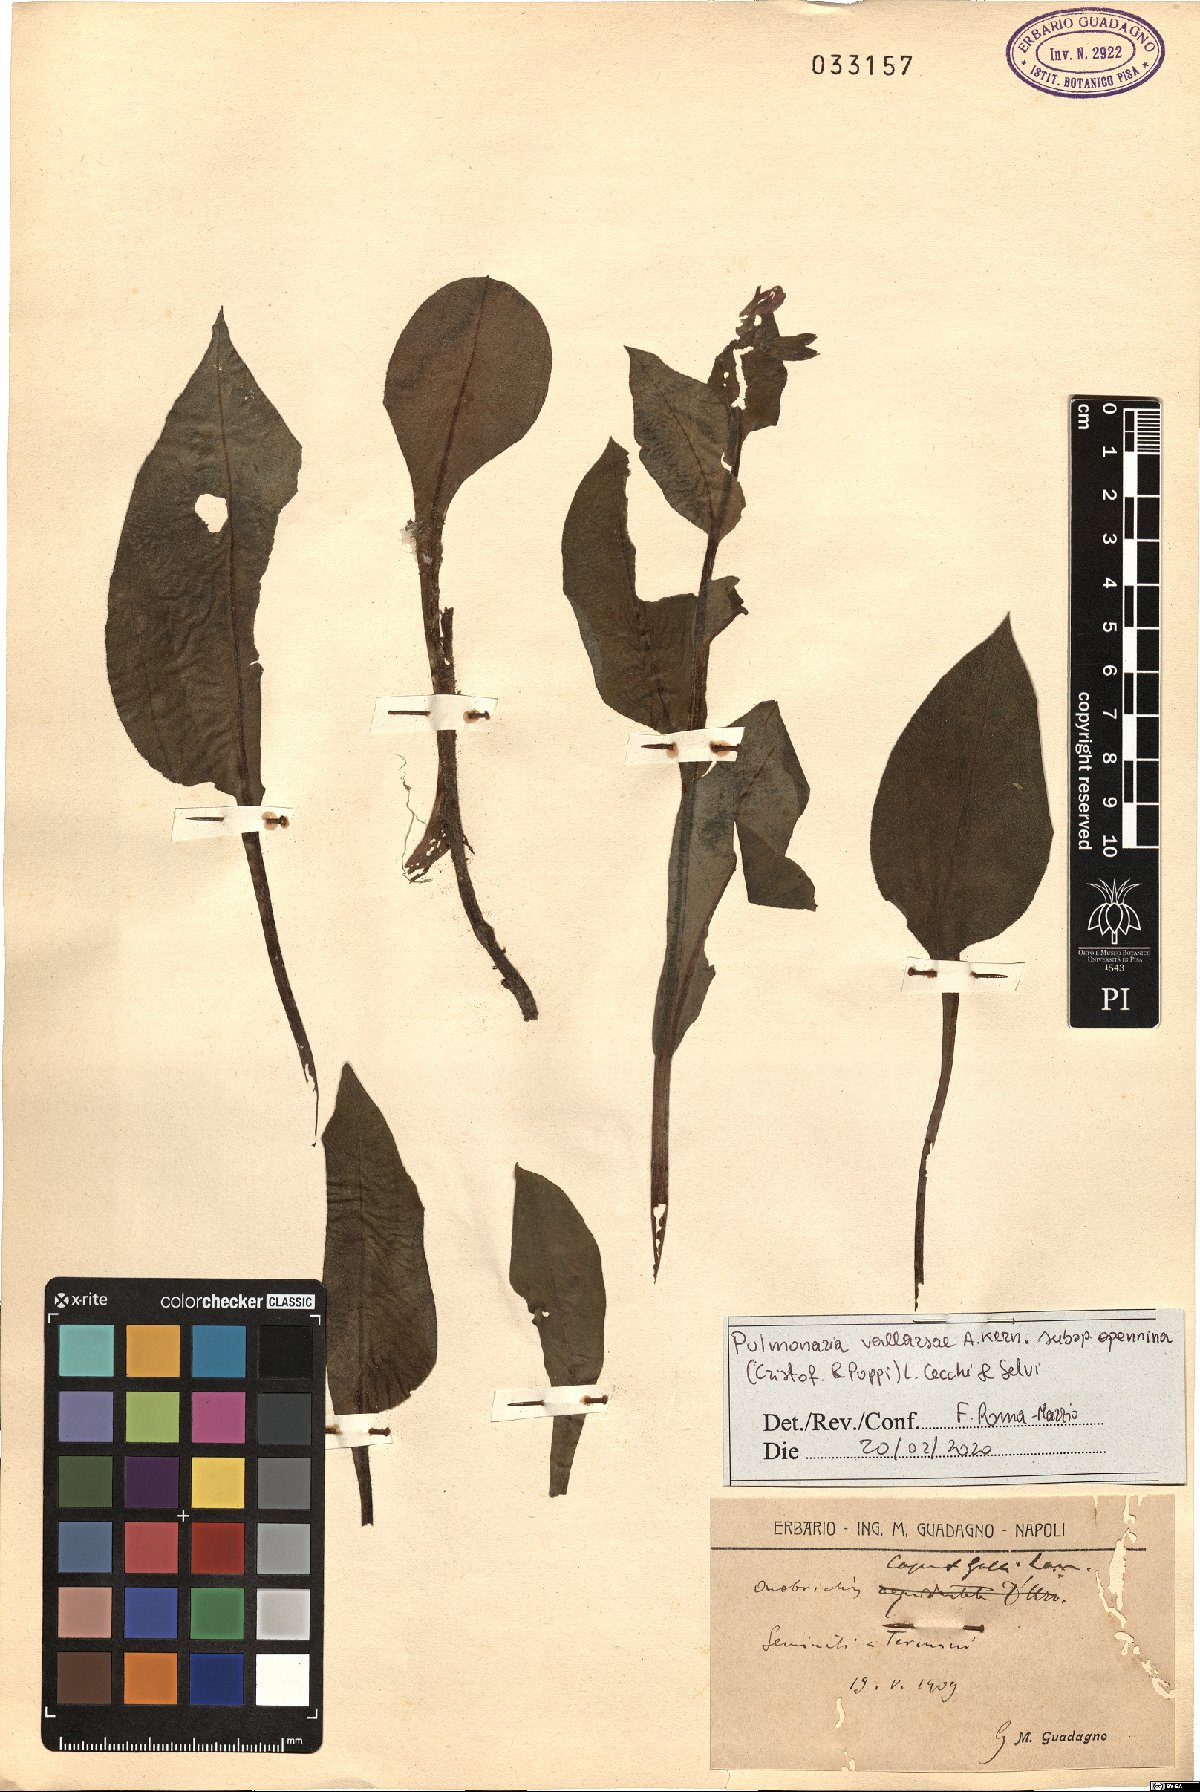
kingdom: Plantae
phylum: Tracheophyta
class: Magnoliopsida
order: Boraginales
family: Boraginaceae
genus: Pulmonaria
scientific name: Pulmonaria hirta
